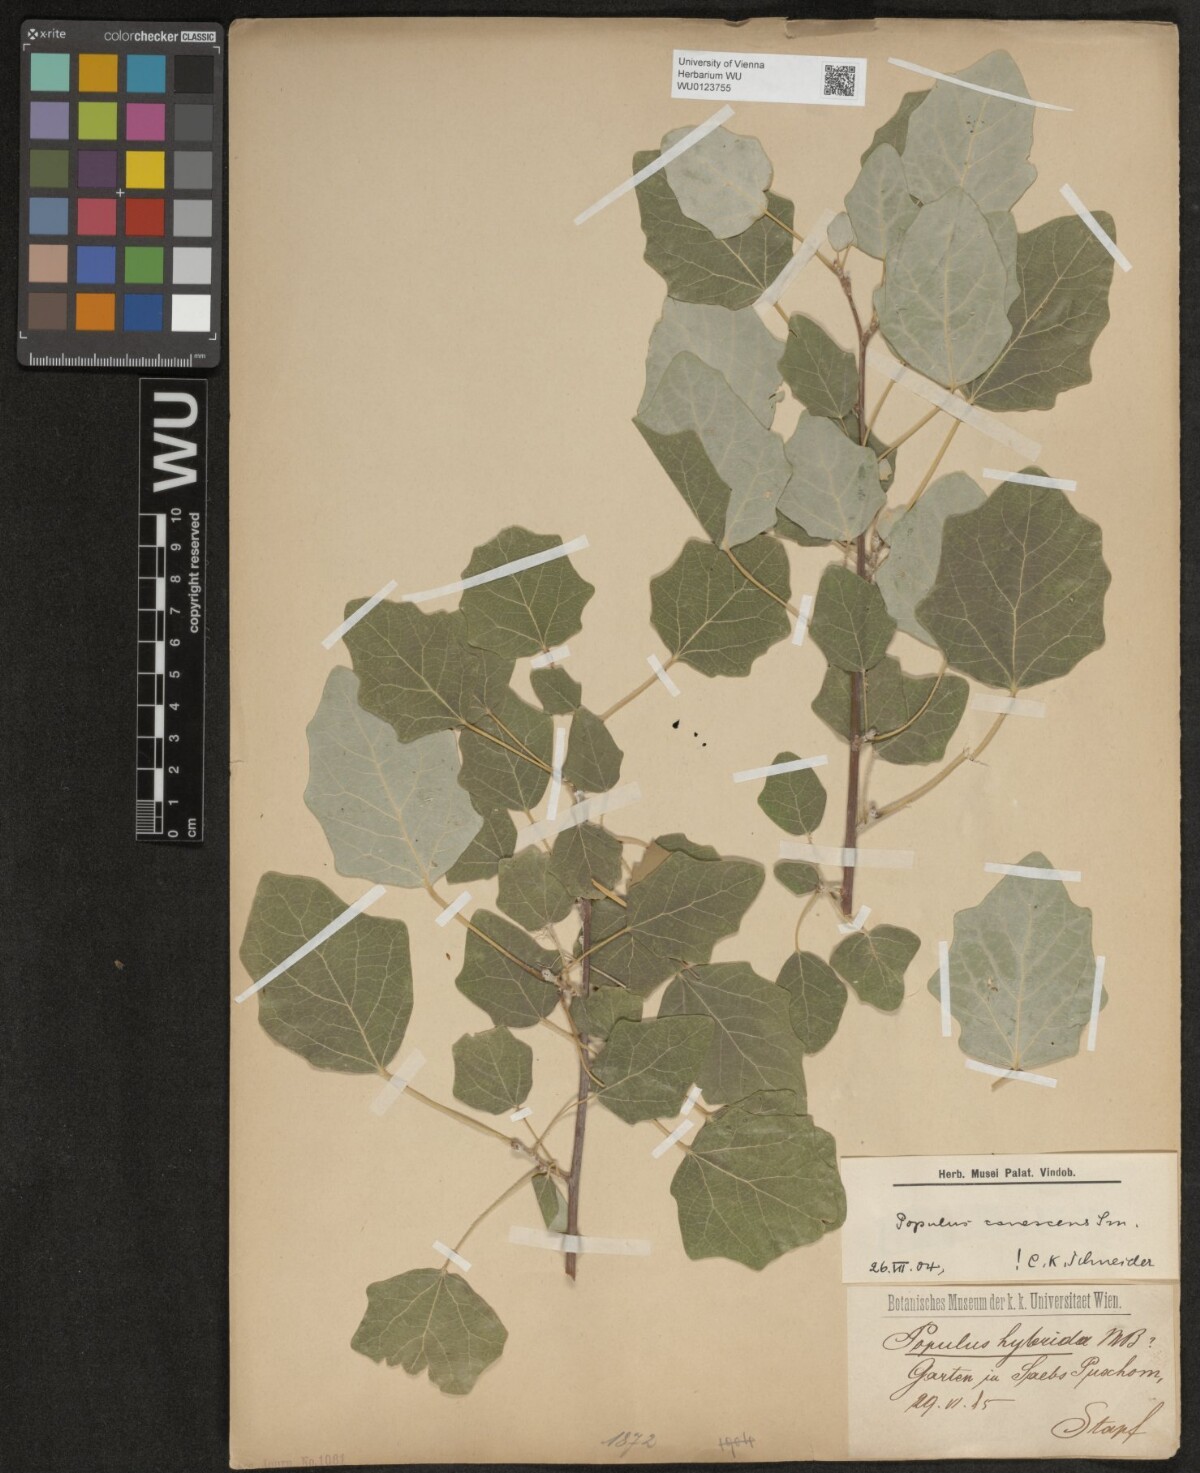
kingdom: Plantae
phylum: Tracheophyta
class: Magnoliopsida
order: Malpighiales
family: Salicaceae
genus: Populus
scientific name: Populus alba
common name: White poplar
